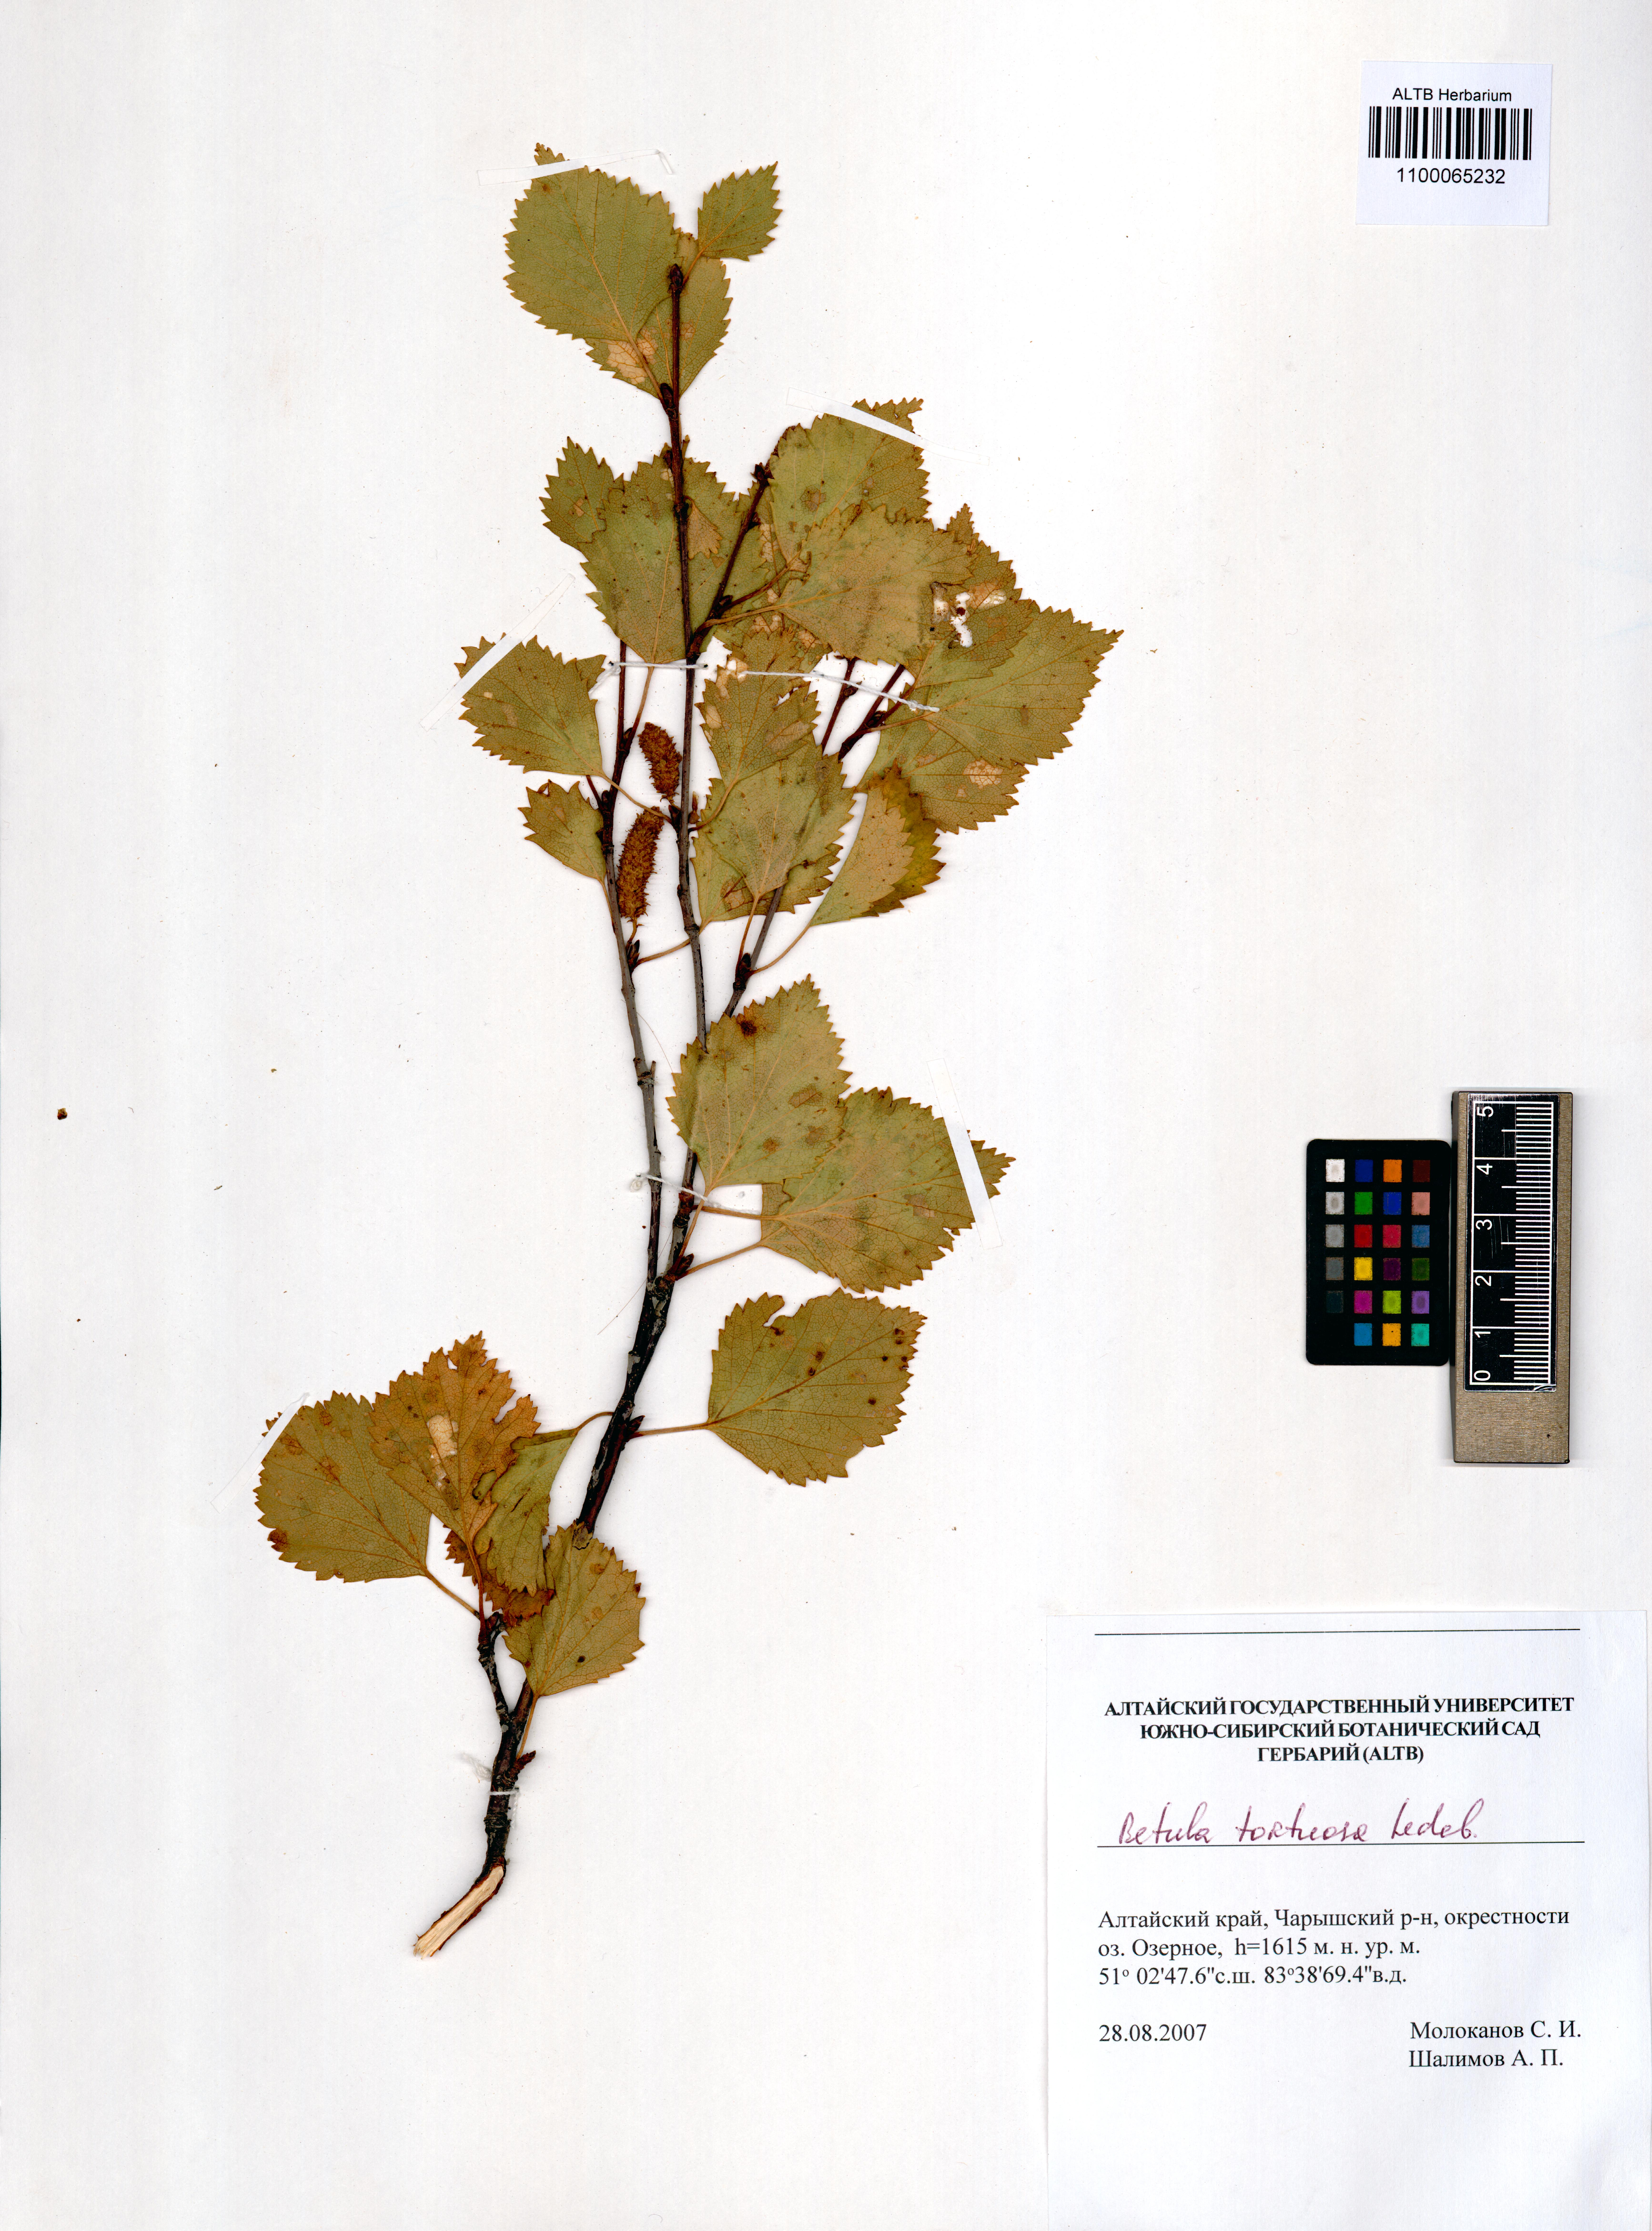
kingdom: Plantae
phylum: Tracheophyta
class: Magnoliopsida
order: Fagales
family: Betulaceae
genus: Betula
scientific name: Betula pubescens
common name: Downy birch
